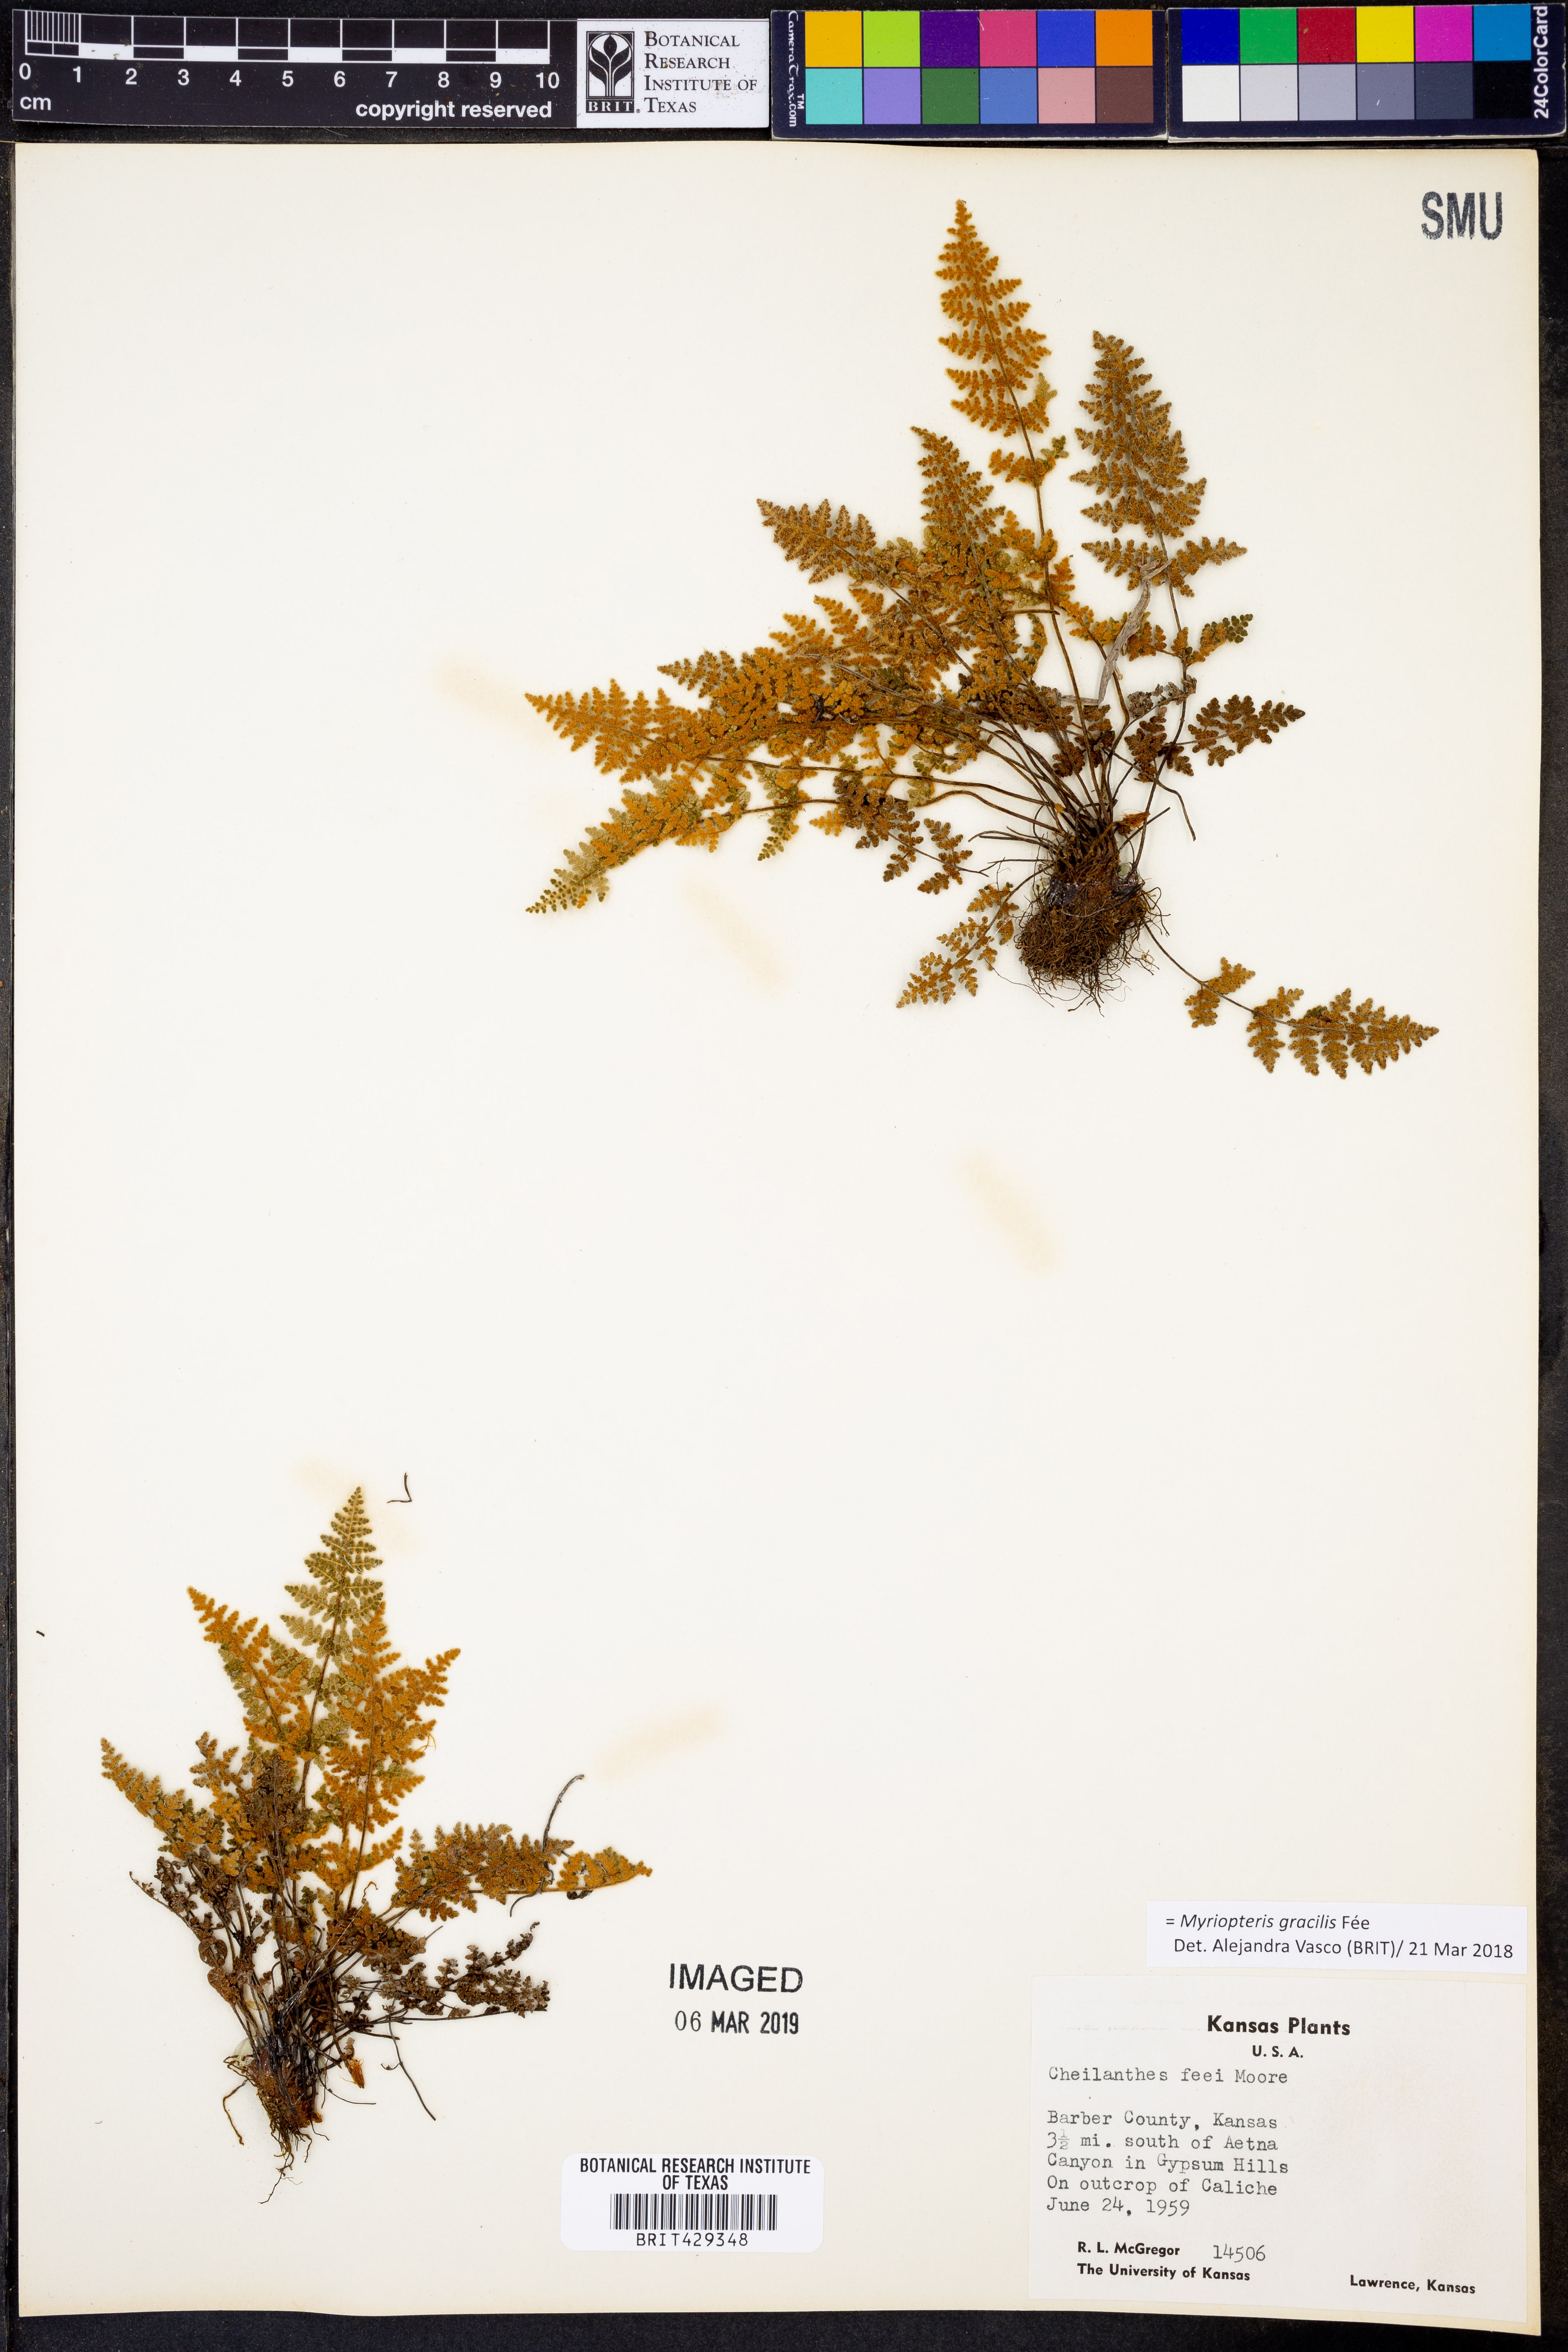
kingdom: Plantae
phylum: Tracheophyta
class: Polypodiopsida
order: Polypodiales
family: Pteridaceae
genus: Myriopteris
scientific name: Myriopteris gracilis
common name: Fee's lip fern
